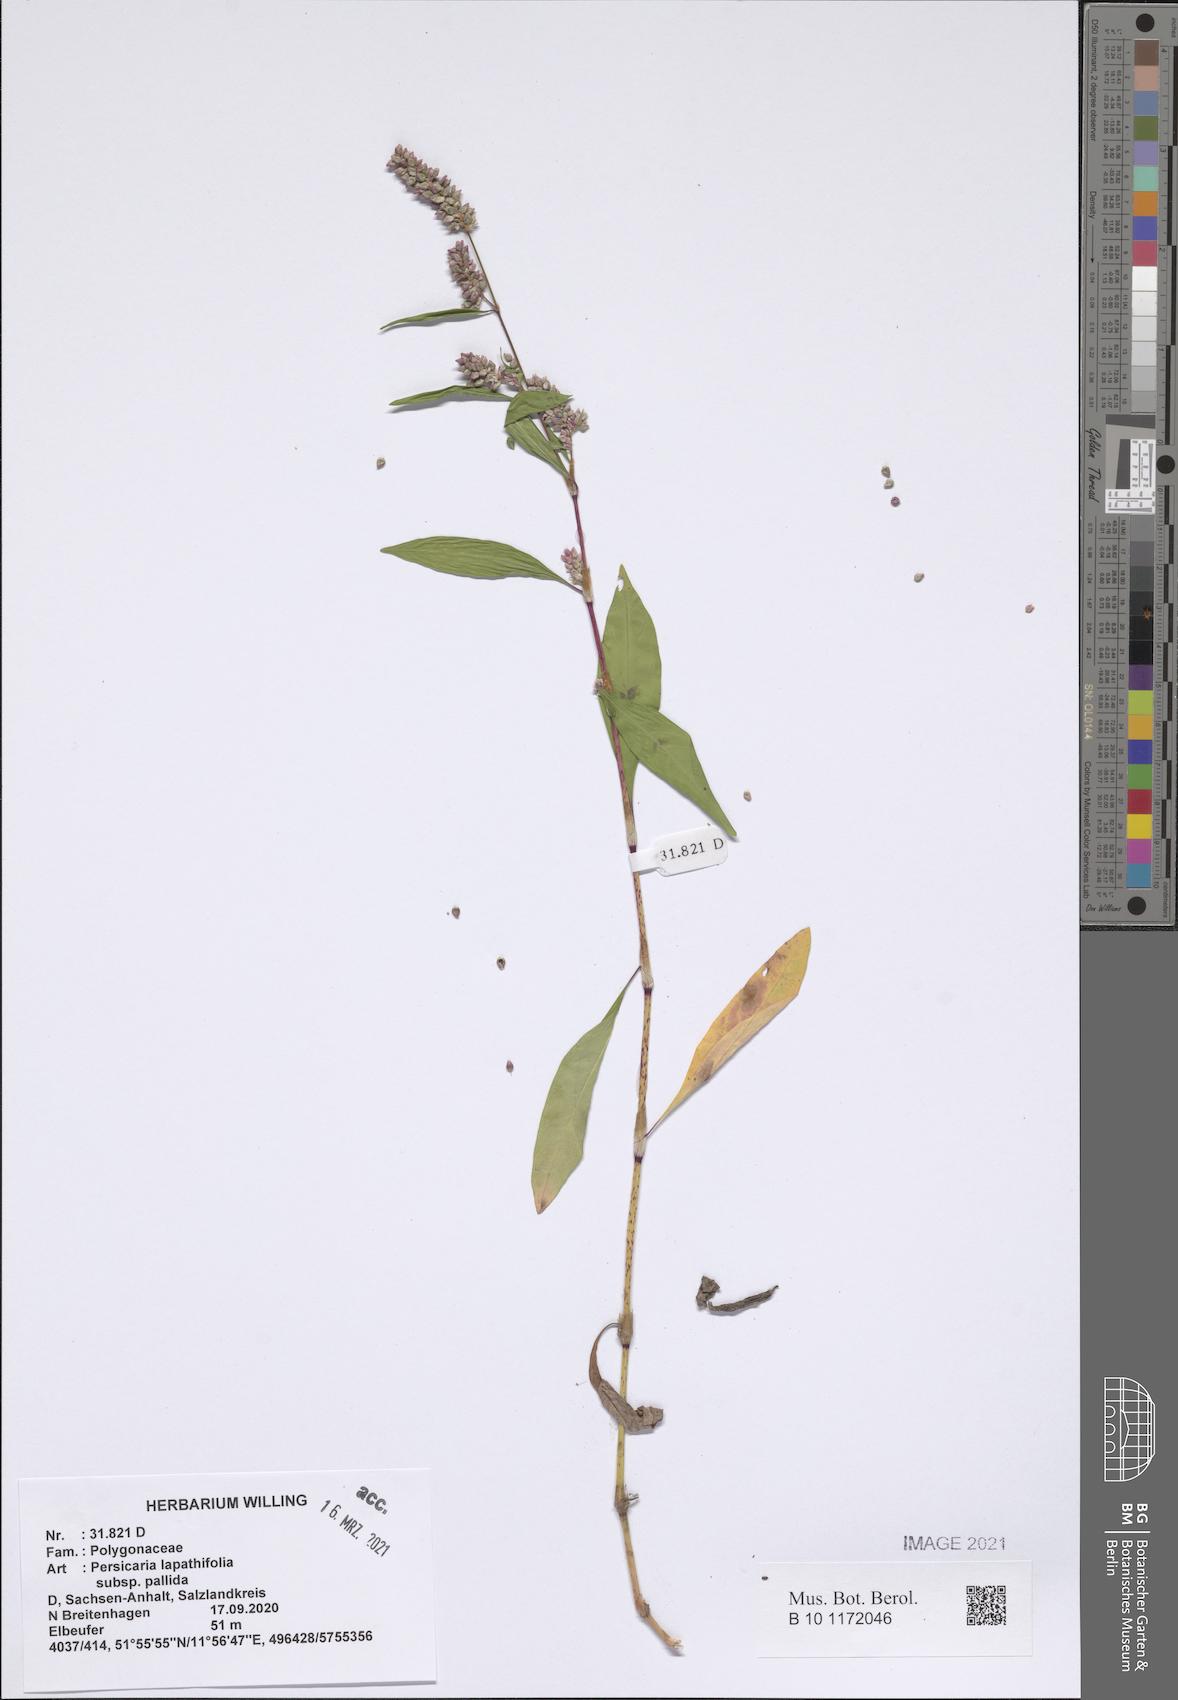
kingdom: Plantae
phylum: Tracheophyta
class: Magnoliopsida
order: Caryophyllales
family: Polygonaceae
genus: Persicaria
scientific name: Persicaria lapathifolia
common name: Curlytop knotweed
